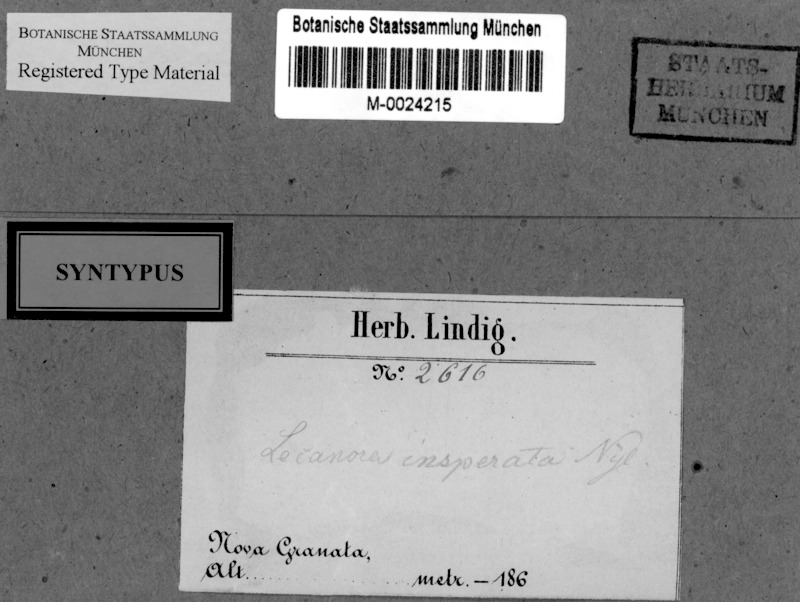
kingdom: Fungi
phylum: Ascomycota
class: Lecanoromycetes
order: Caliciales
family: Caliciaceae
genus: Orcularia
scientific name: Orcularia insperata
